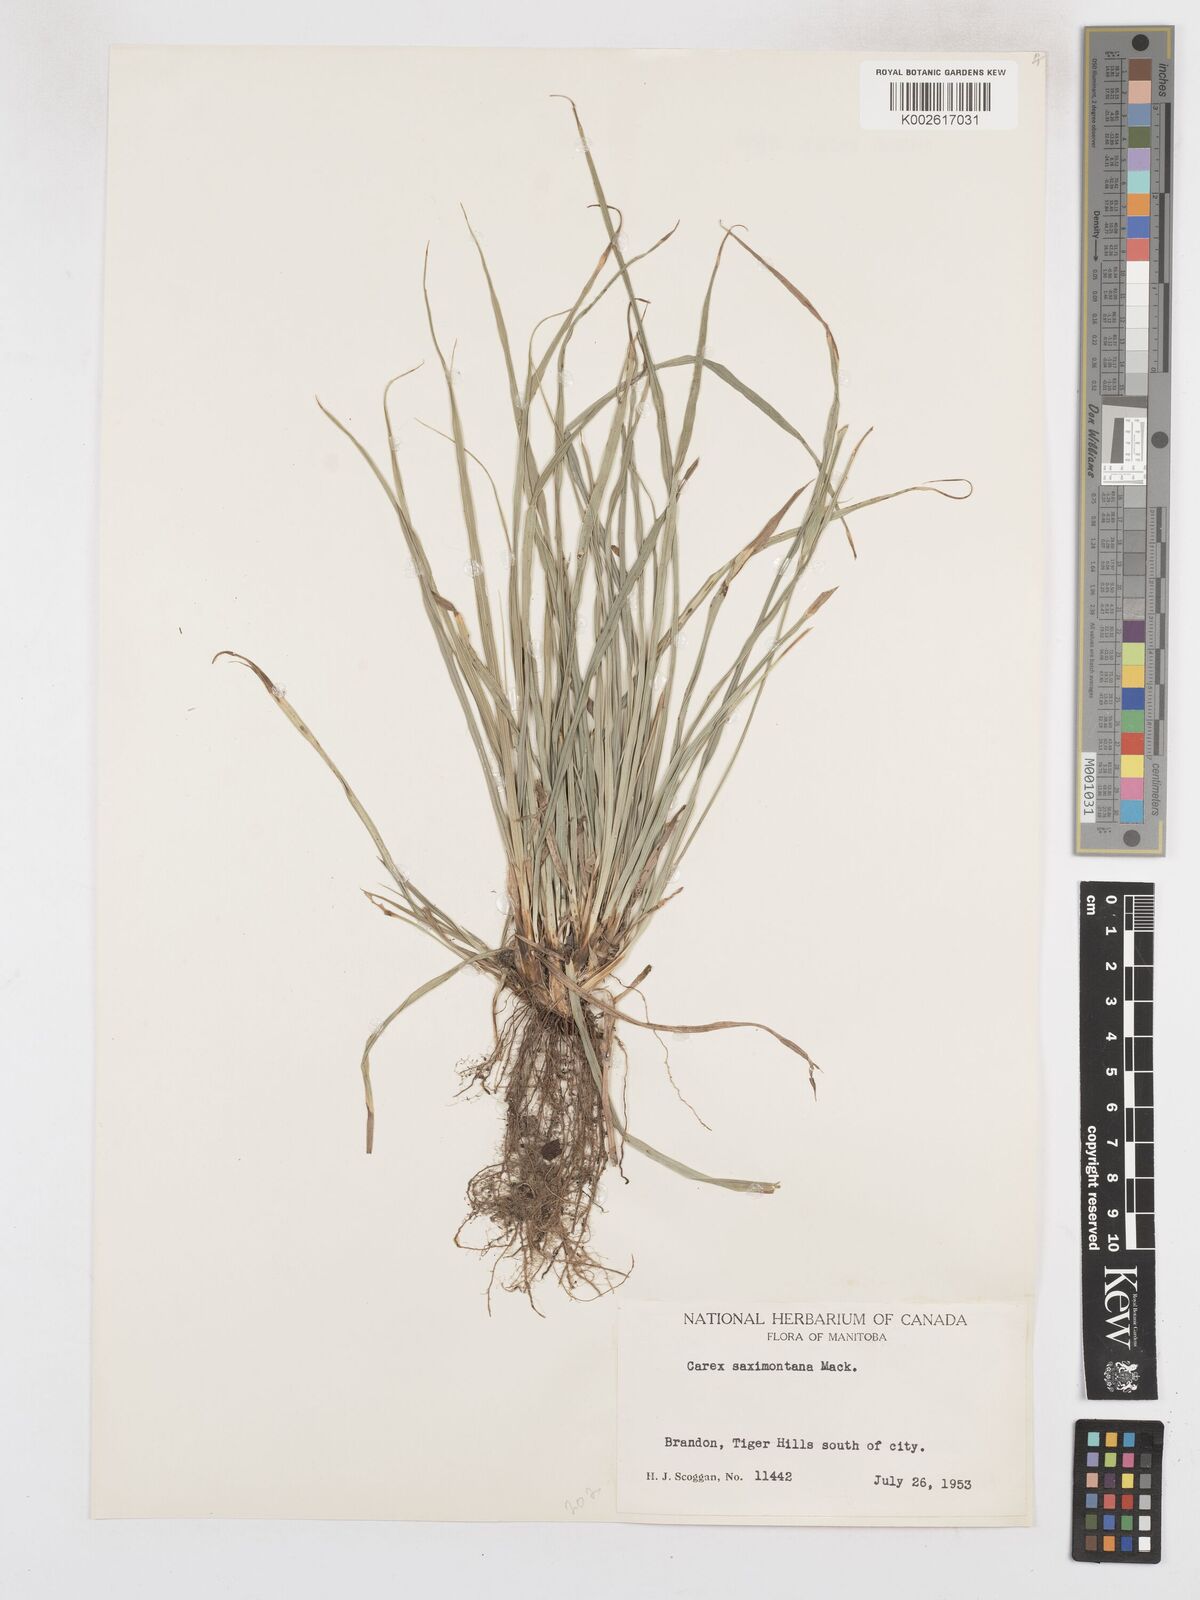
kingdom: Plantae
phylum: Tracheophyta
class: Liliopsida
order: Poales
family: Cyperaceae
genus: Carex
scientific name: Carex saximontana
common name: Rocky mountain sedge
